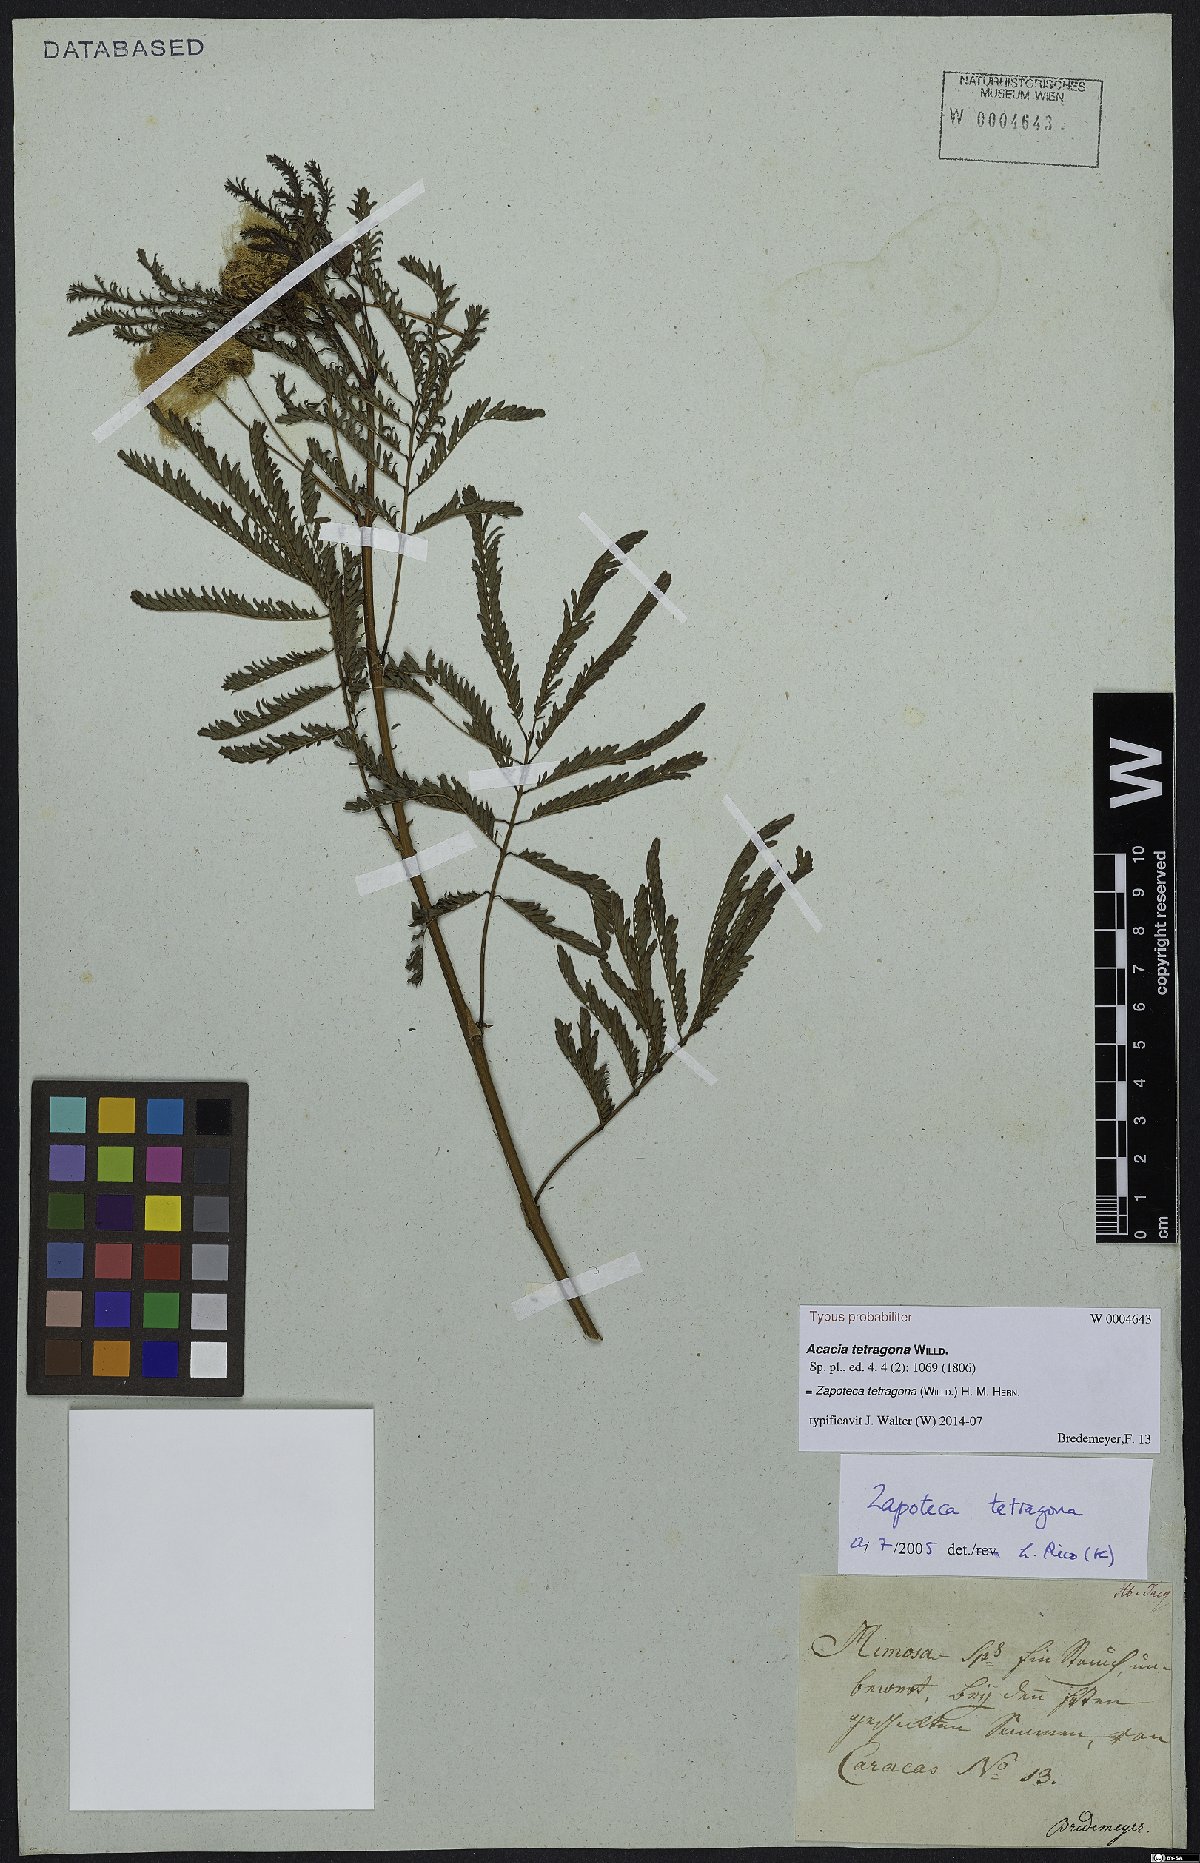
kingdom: Plantae
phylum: Tracheophyta
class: Magnoliopsida
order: Fabales
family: Fabaceae
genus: Zapoteca
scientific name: Zapoteca tetragona
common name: White calliandra
